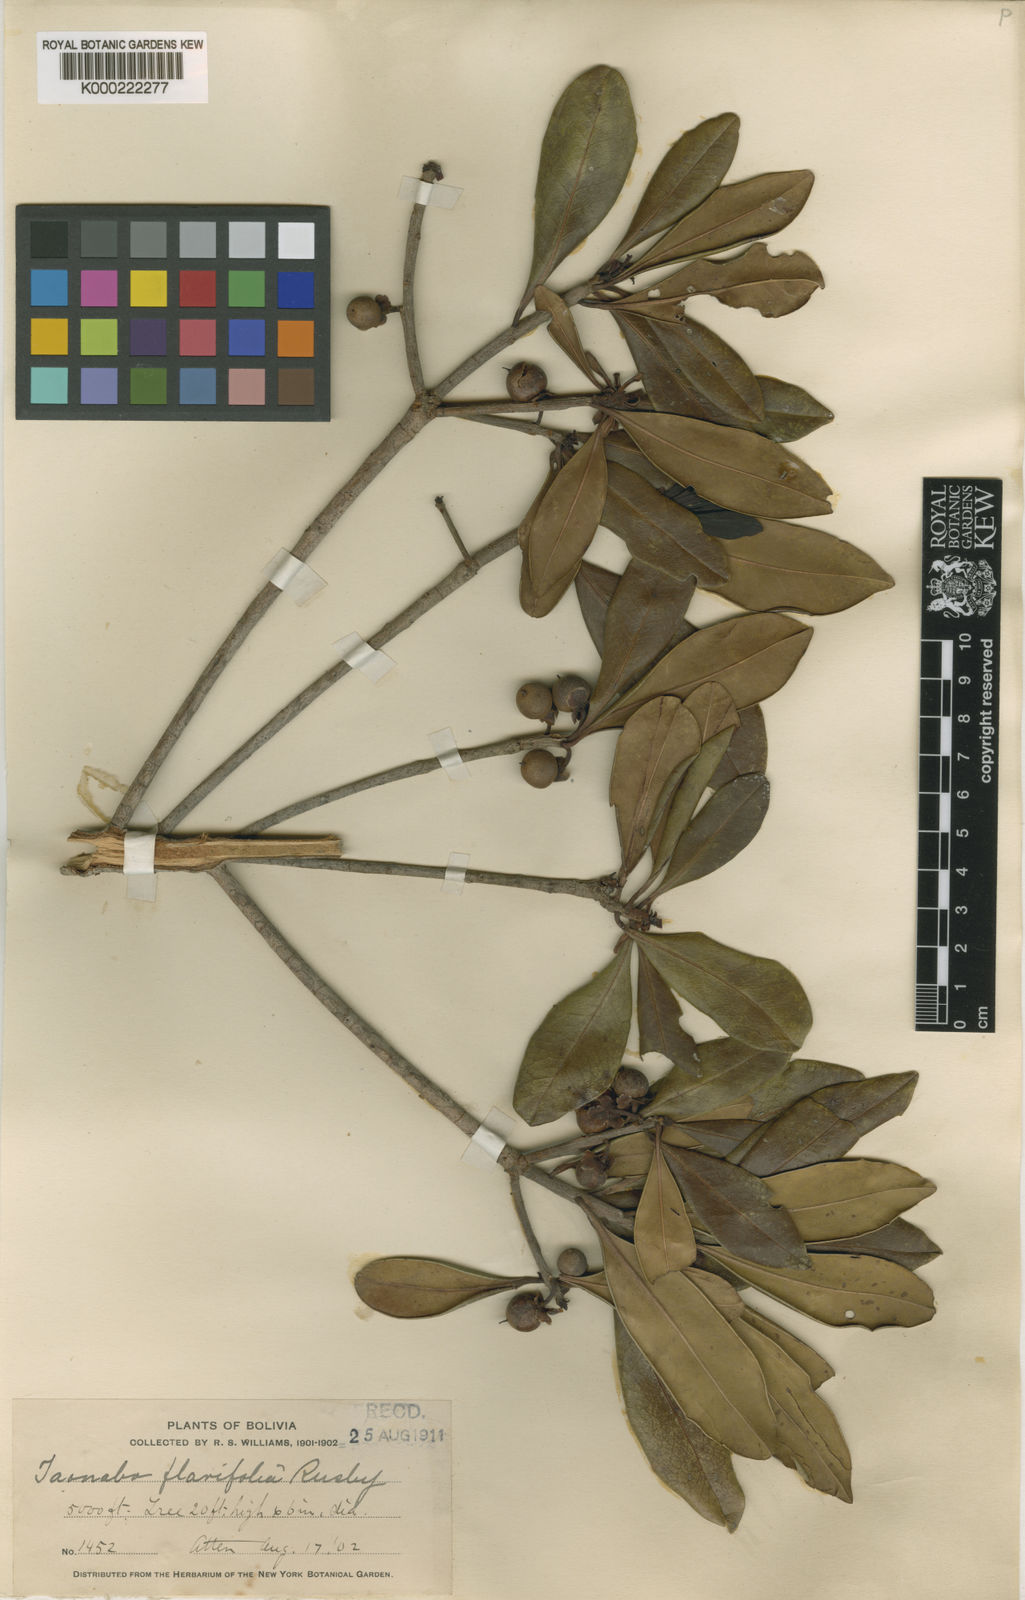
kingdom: Plantae
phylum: Tracheophyta
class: Magnoliopsida
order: Ericales
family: Pentaphylacaceae
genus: Ternstroemia
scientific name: Ternstroemia asymmetrica
